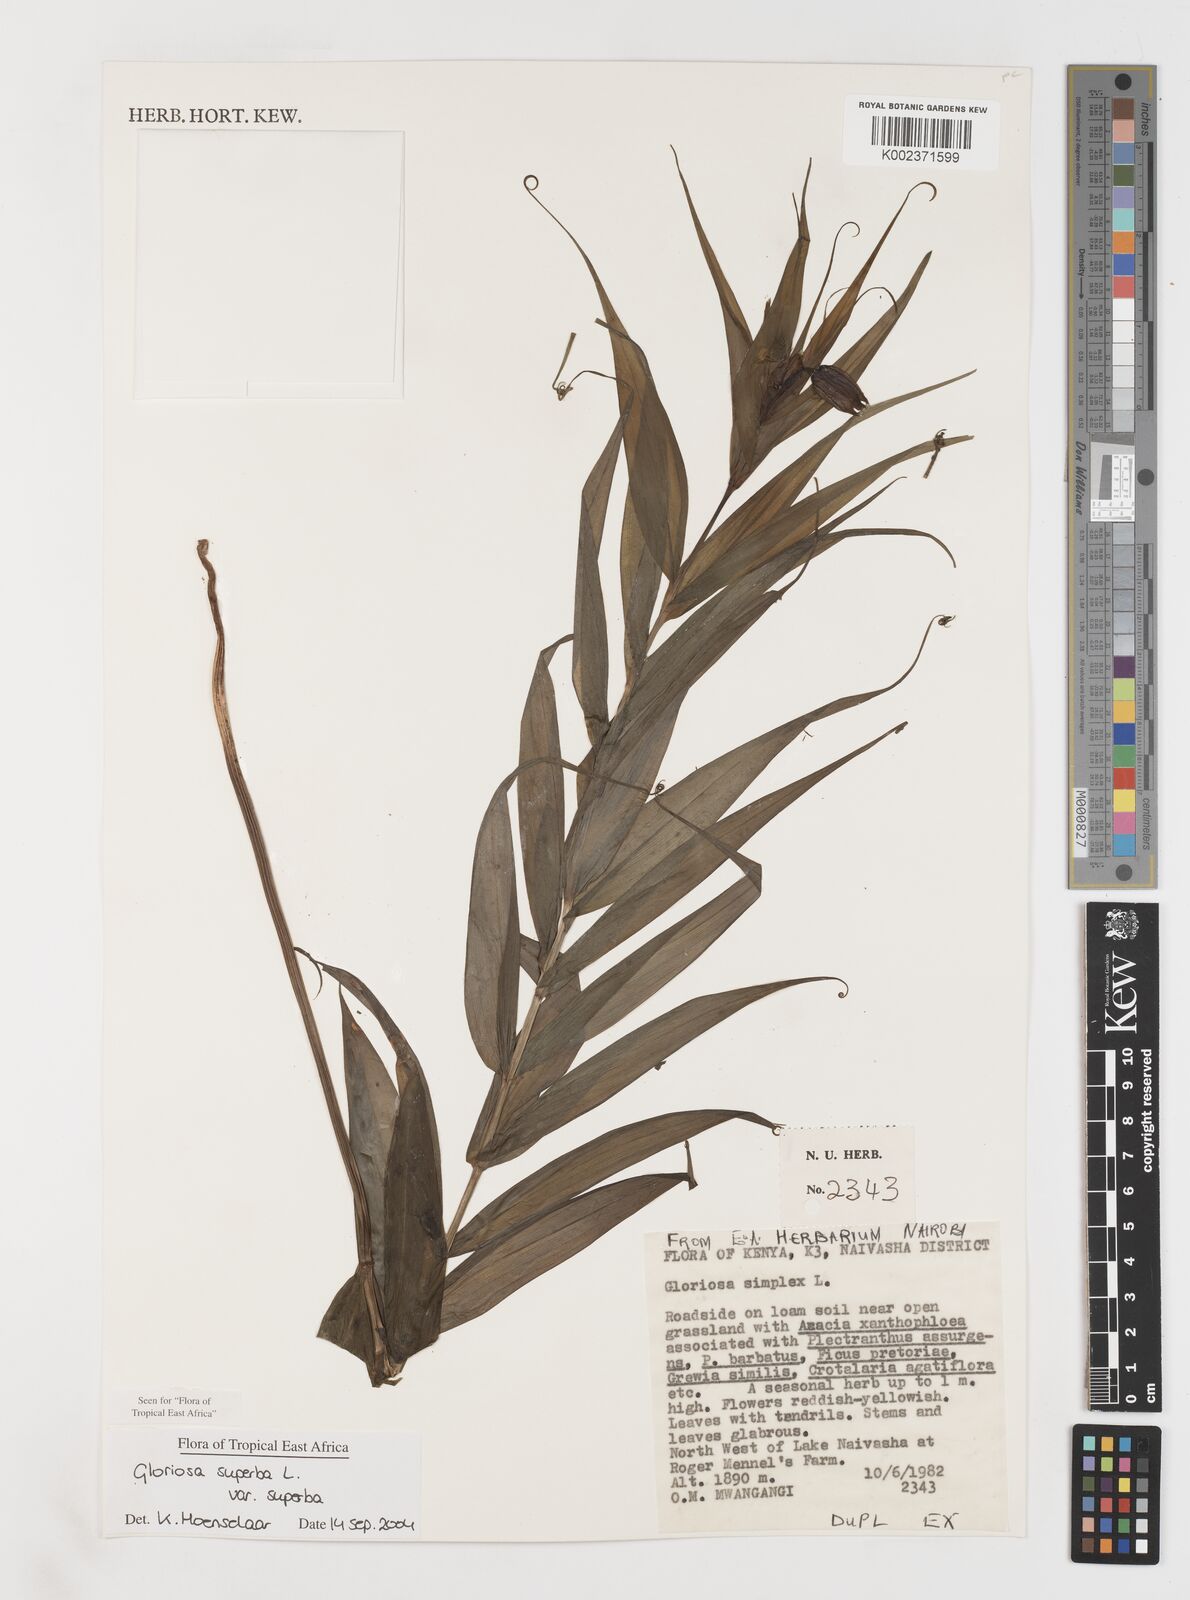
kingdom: Plantae
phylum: Tracheophyta
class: Liliopsida
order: Liliales
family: Colchicaceae
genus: Gloriosa
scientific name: Gloriosa simplex
